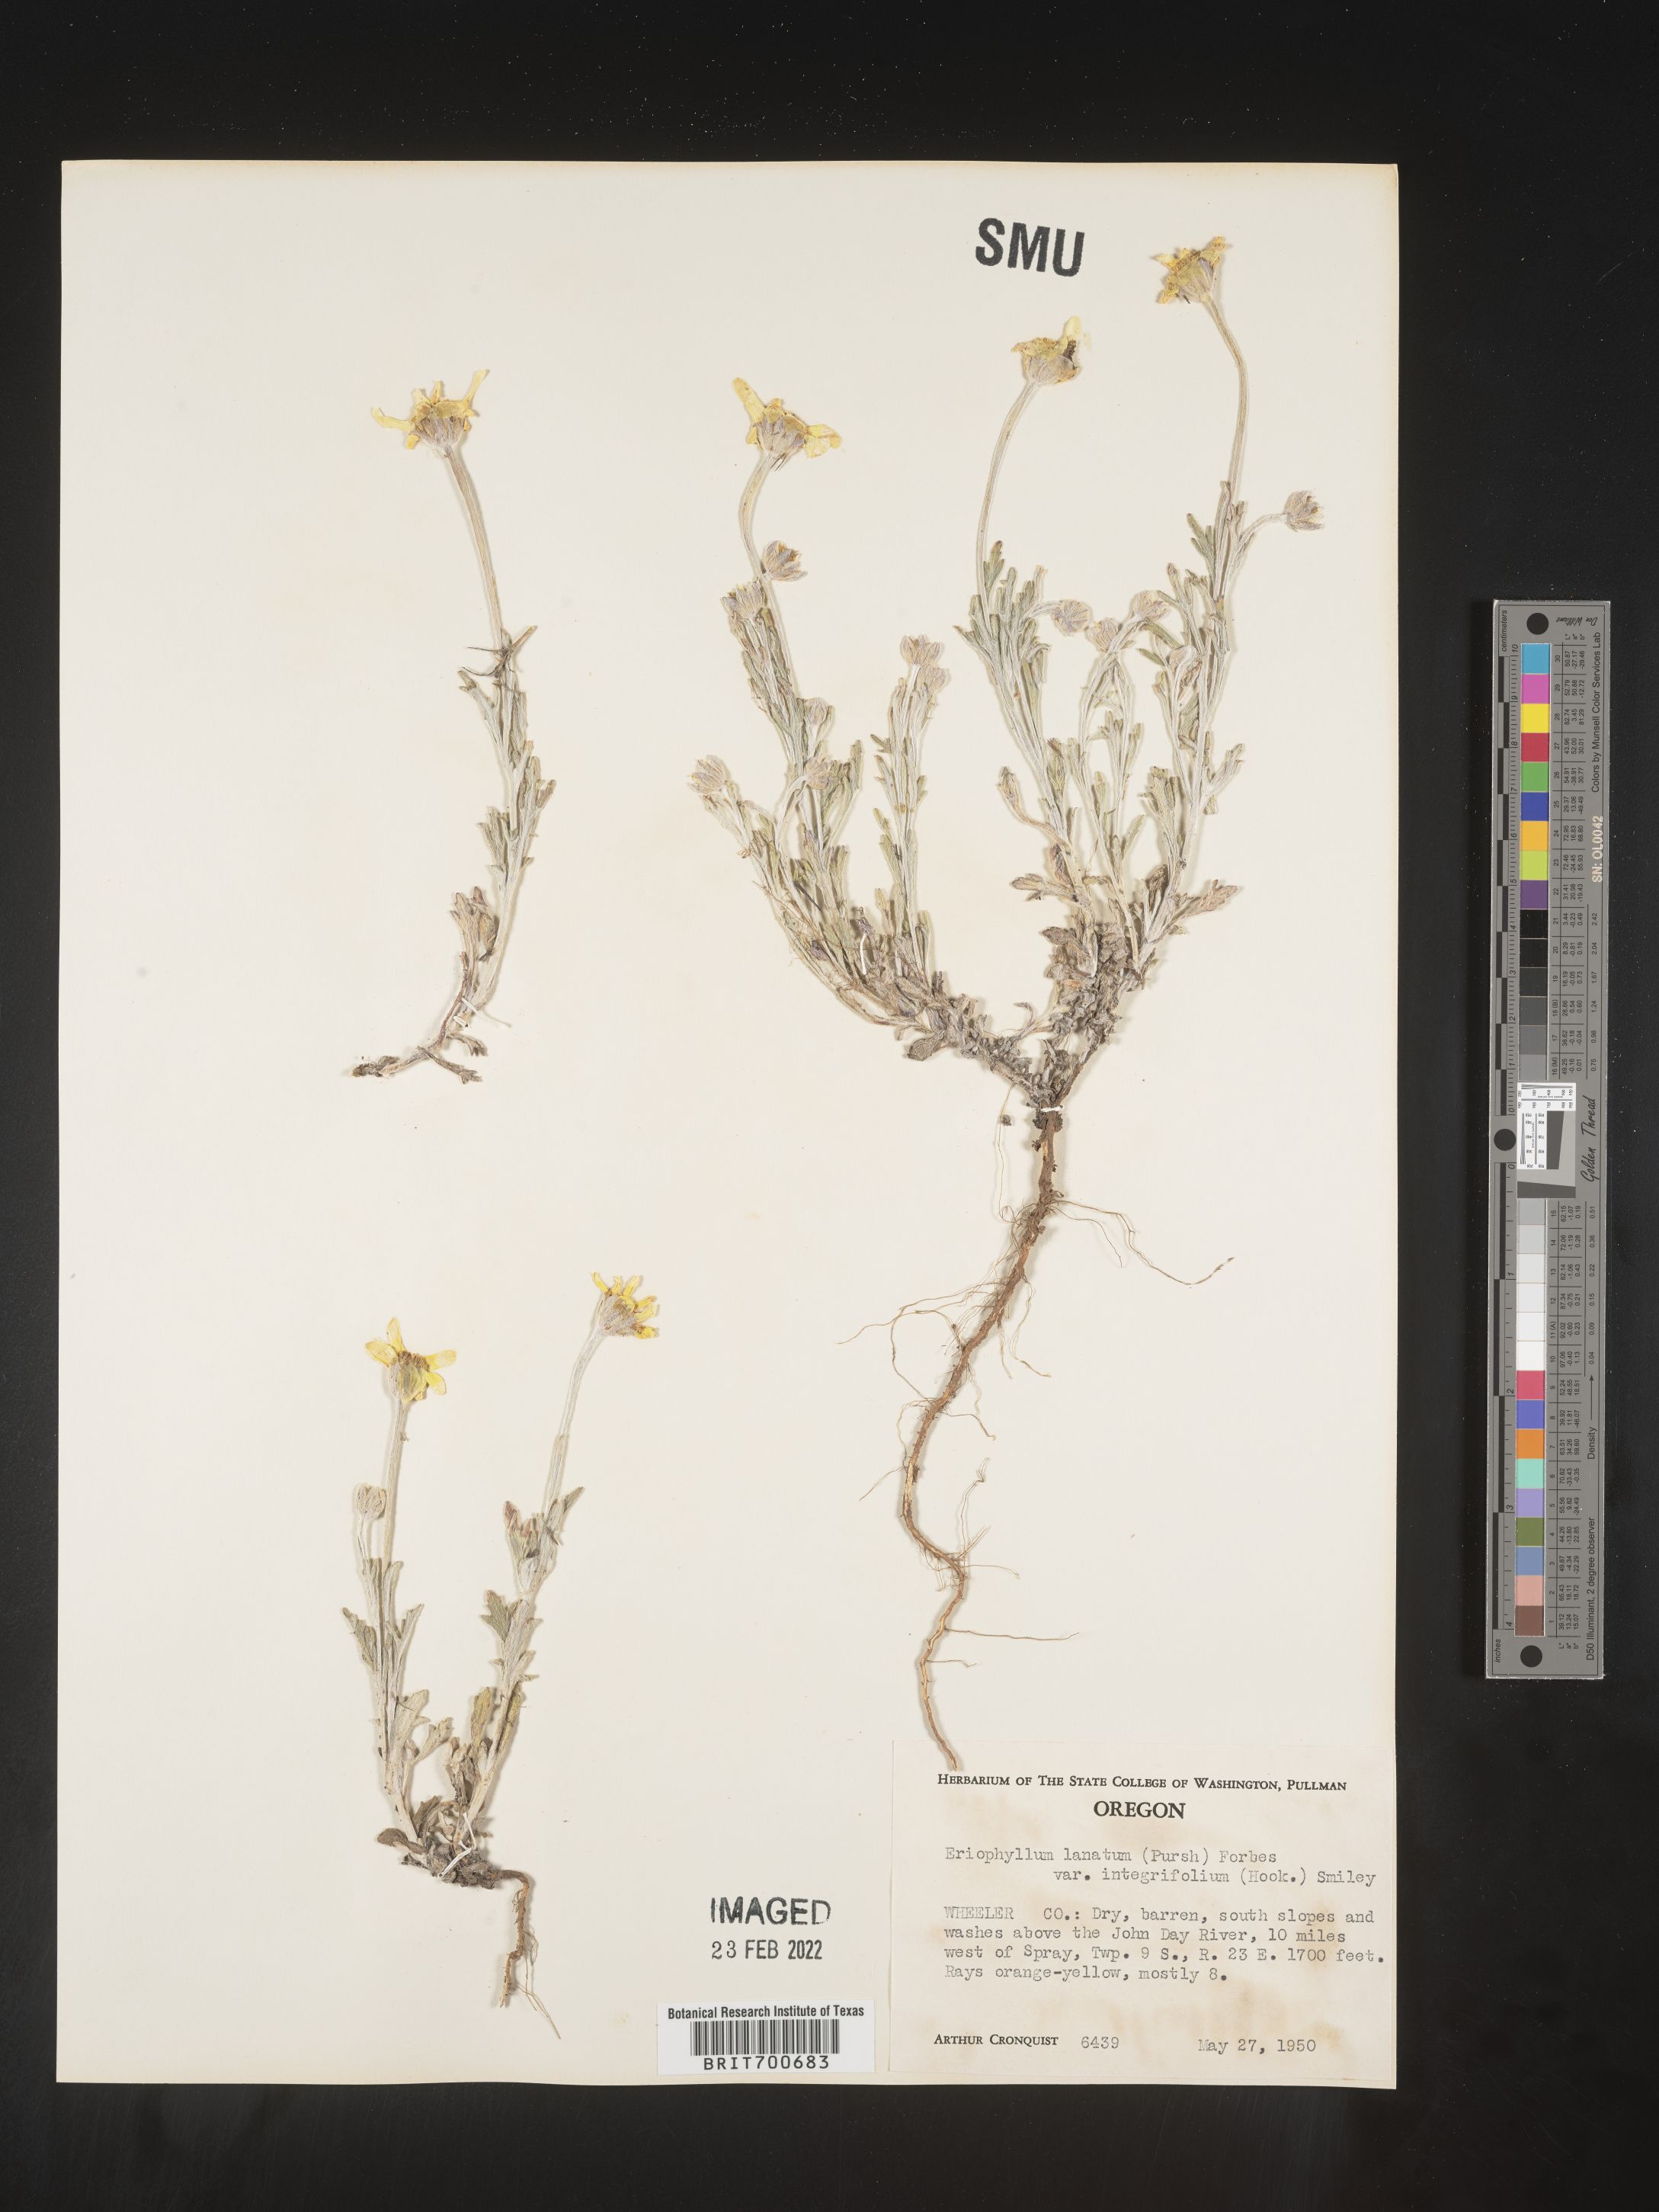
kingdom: Plantae
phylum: Tracheophyta
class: Magnoliopsida
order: Asterales
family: Asteraceae
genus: Eriophyllum
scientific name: Eriophyllum lanatum
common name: Common woolly-sunflower
